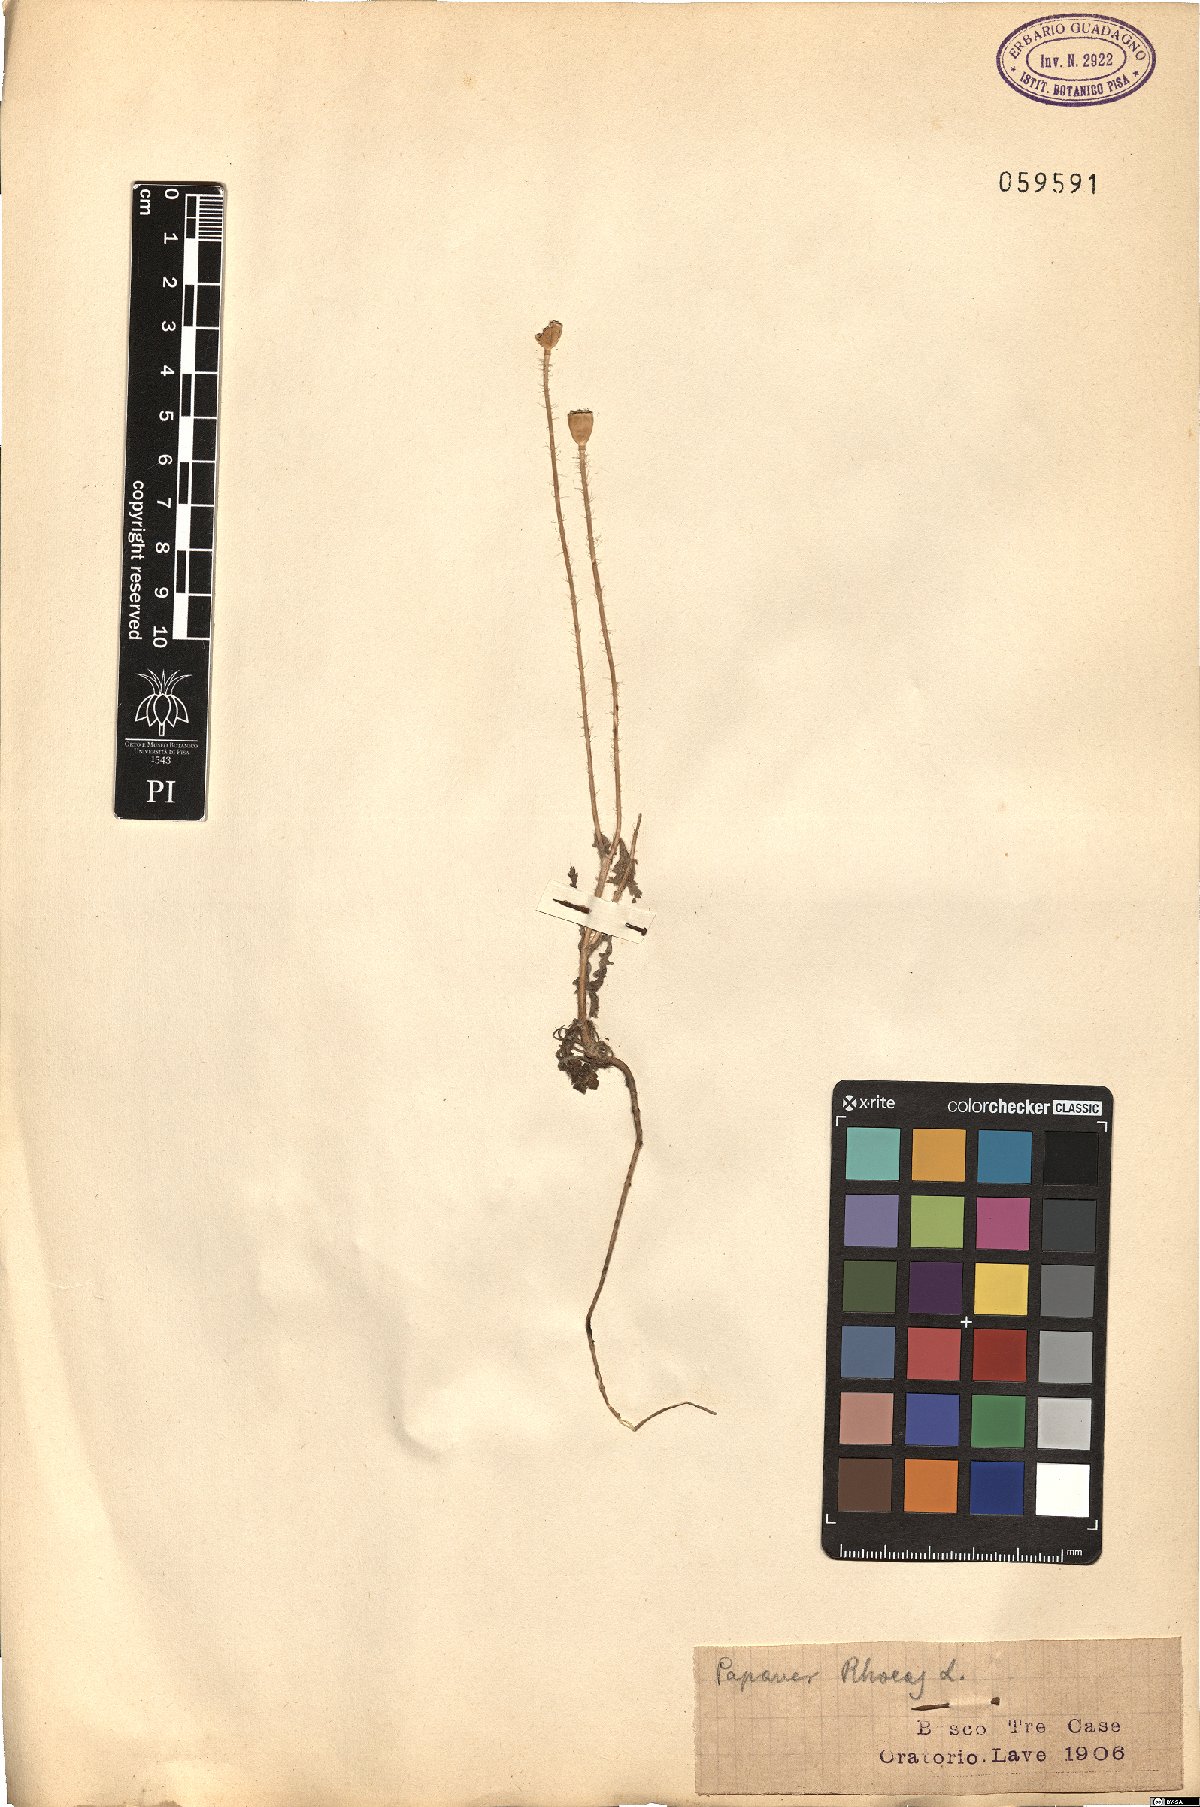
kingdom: Plantae
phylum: Tracheophyta
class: Magnoliopsida
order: Ranunculales
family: Papaveraceae
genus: Papaver
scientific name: Papaver rhoeas
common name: Corn poppy
